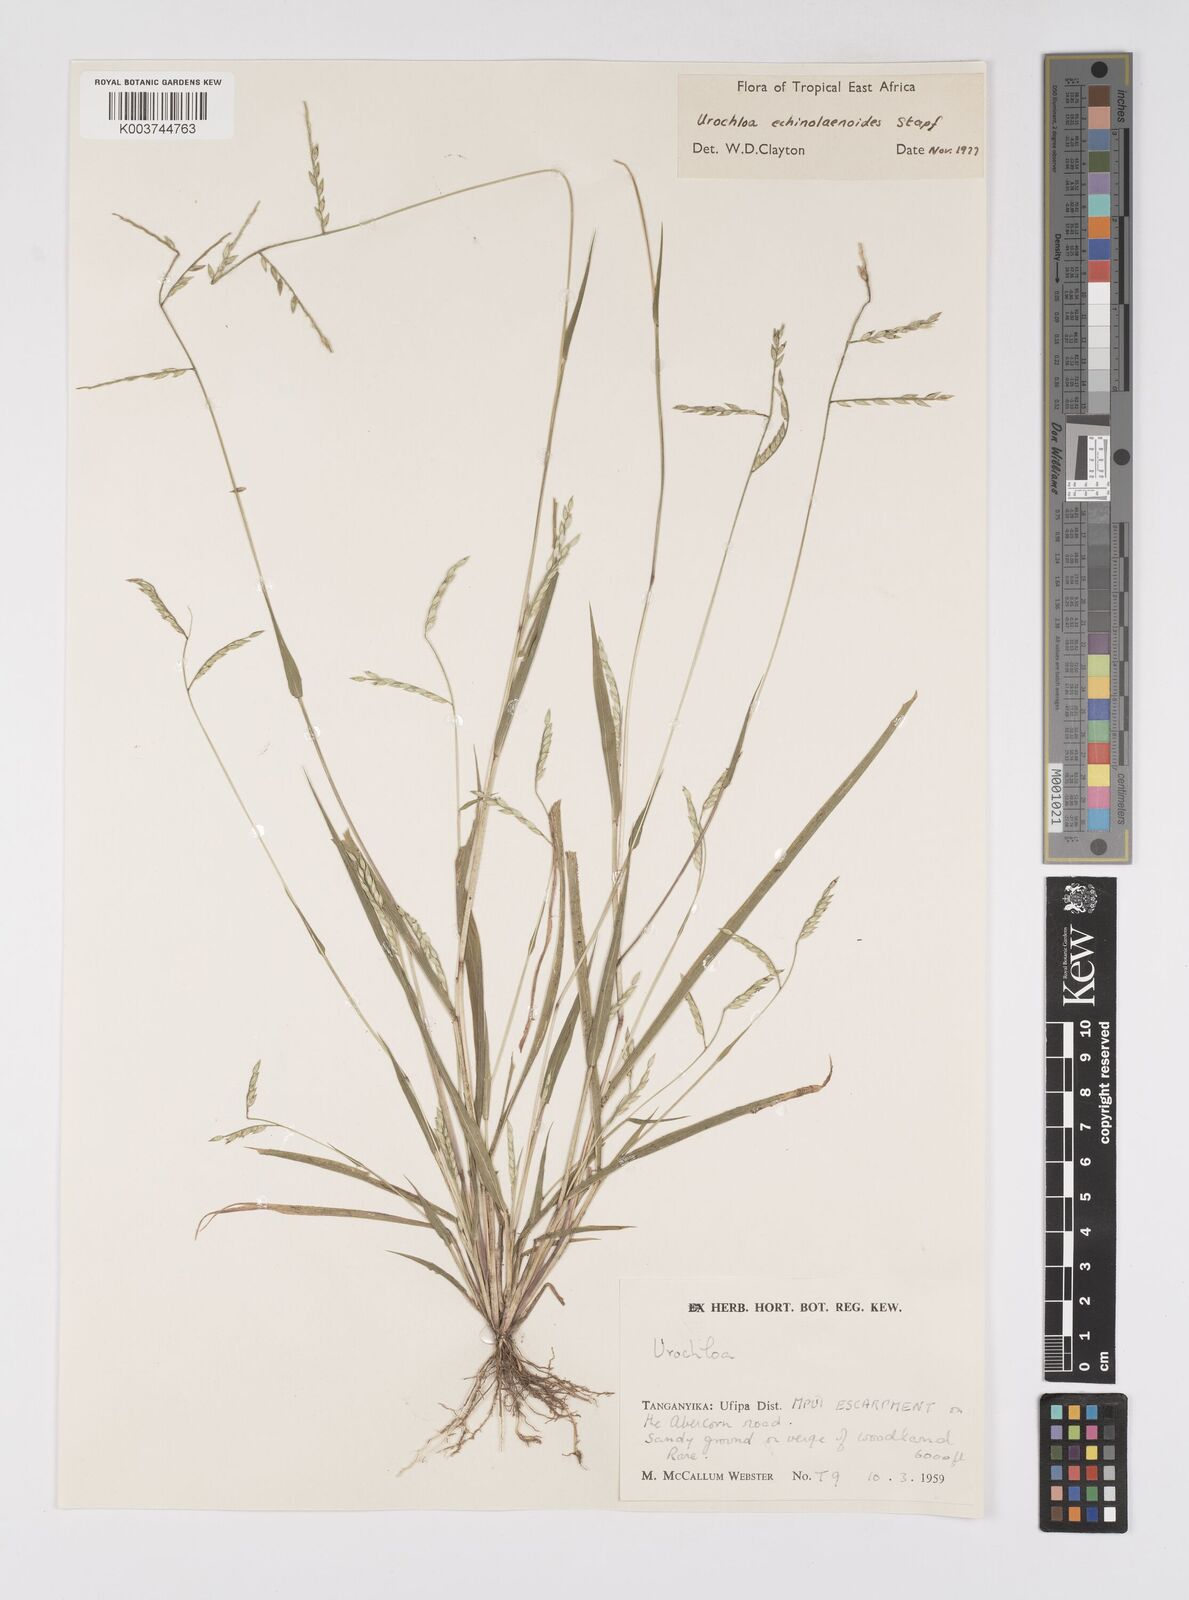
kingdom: Plantae
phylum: Tracheophyta
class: Liliopsida
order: Poales
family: Poaceae
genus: Urochloa
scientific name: Urochloa echinolaenoides
